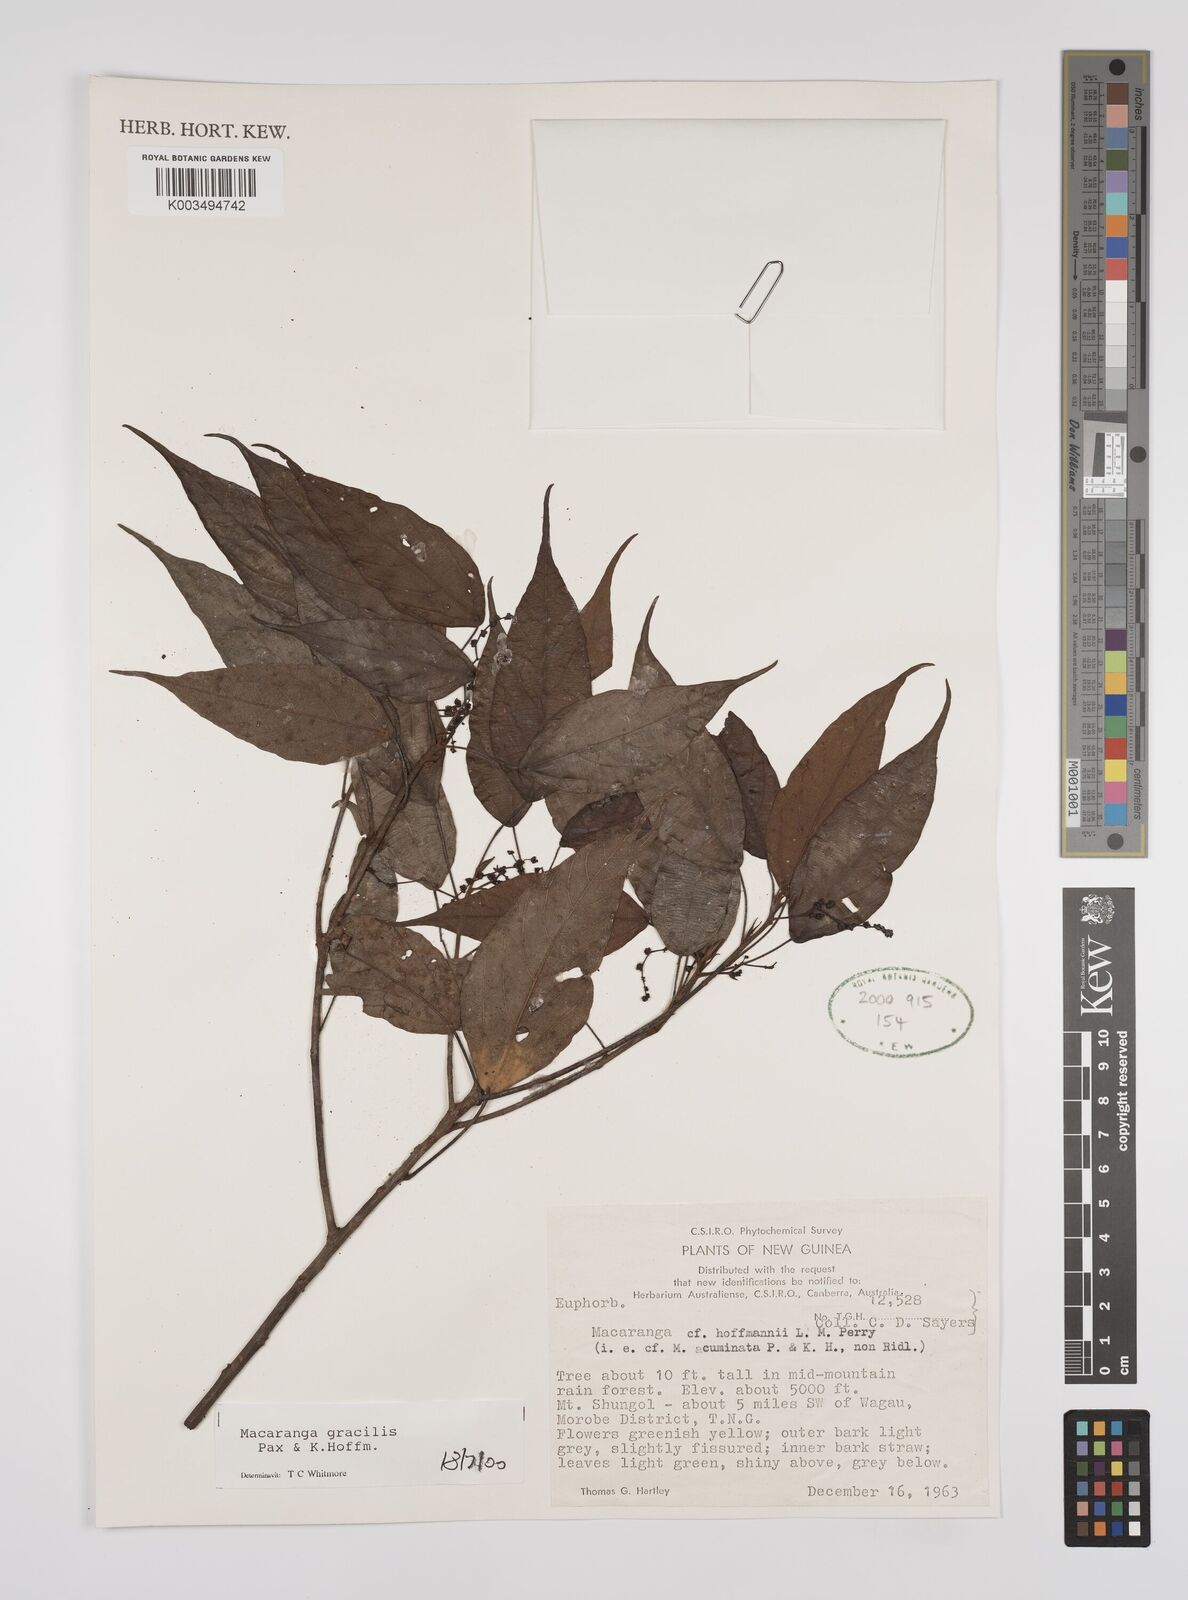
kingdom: Plantae
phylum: Tracheophyta
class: Magnoliopsida
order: Malpighiales
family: Euphorbiaceae
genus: Macaranga
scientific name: Macaranga gracilis
